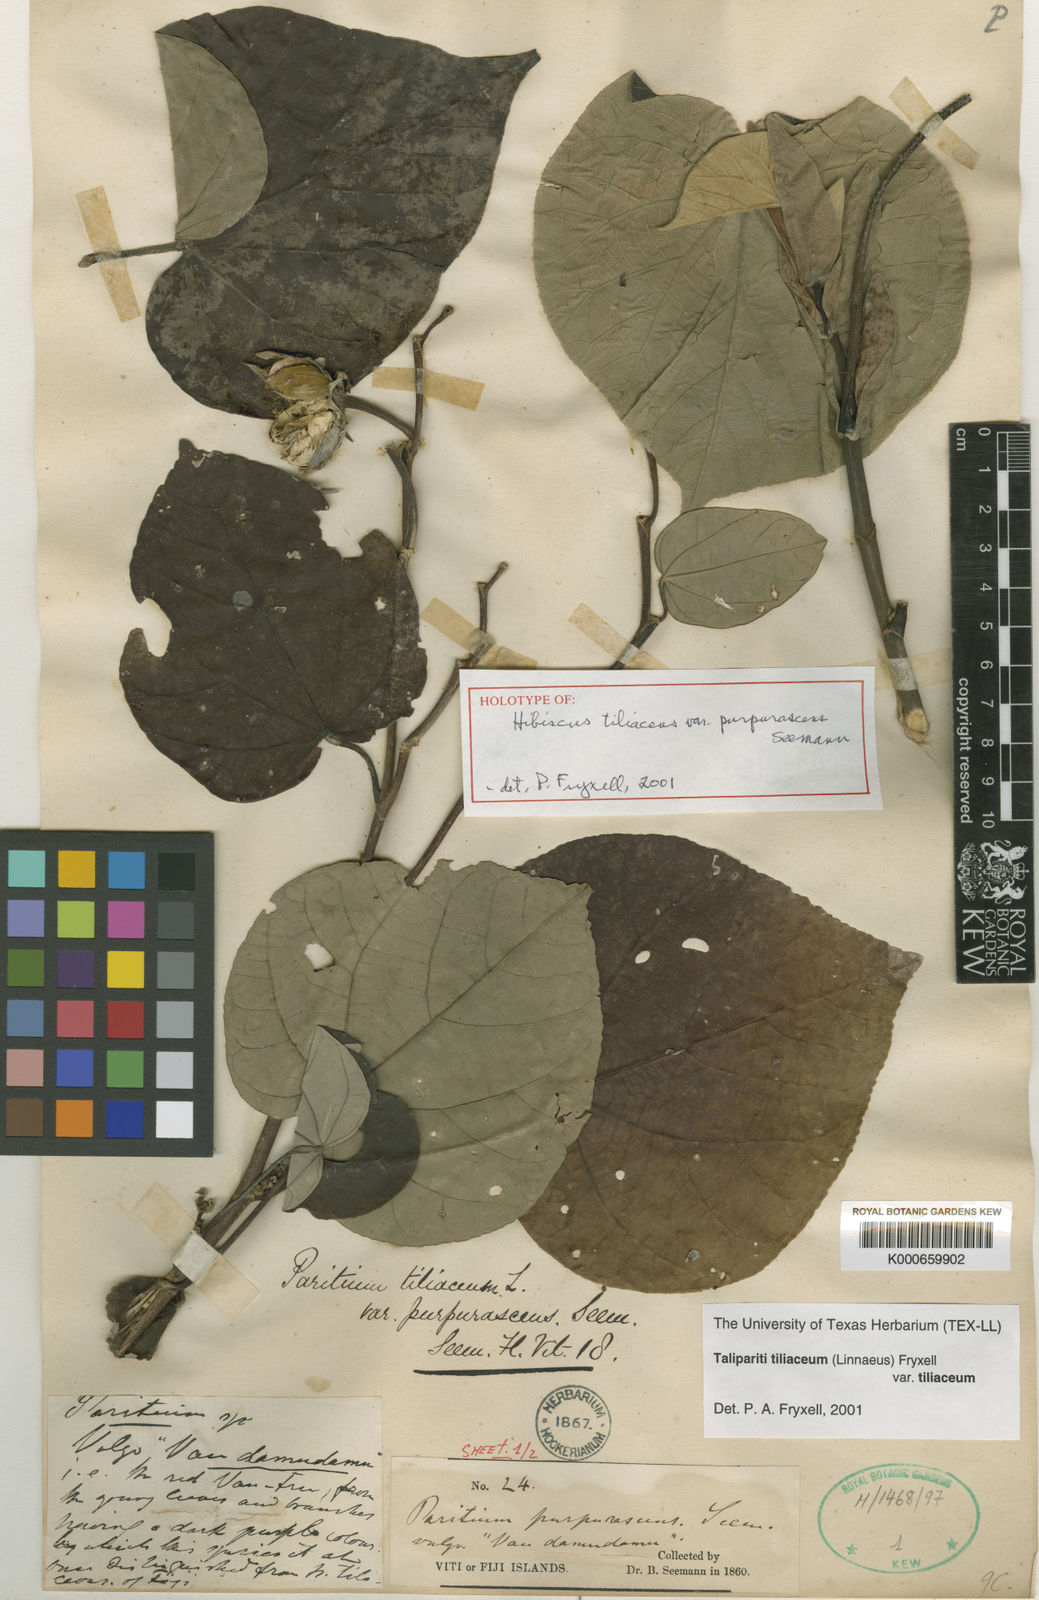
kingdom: Plantae
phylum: Tracheophyta
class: Magnoliopsida
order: Malvales
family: Malvaceae
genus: Talipariti
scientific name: Talipariti tiliaceum
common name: Sea hibiscus
